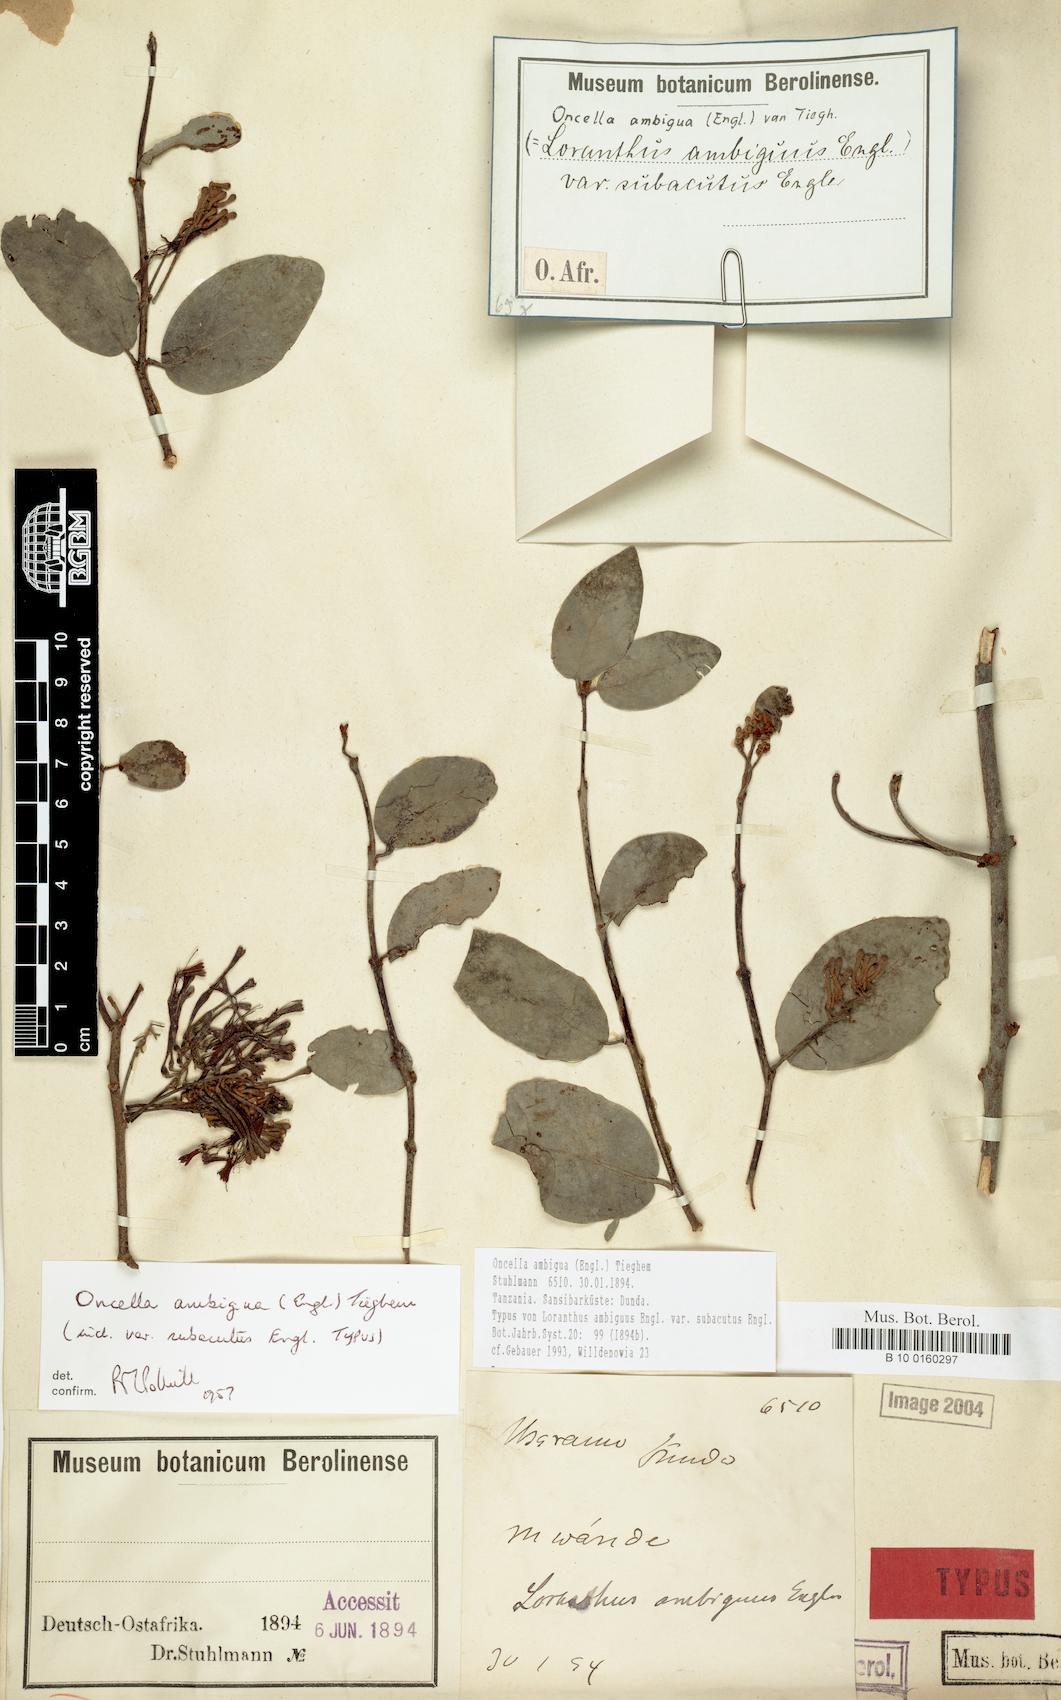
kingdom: Plantae
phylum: Tracheophyta
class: Magnoliopsida
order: Santalales
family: Loranthaceae
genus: Oncella
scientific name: Oncella ambigua
